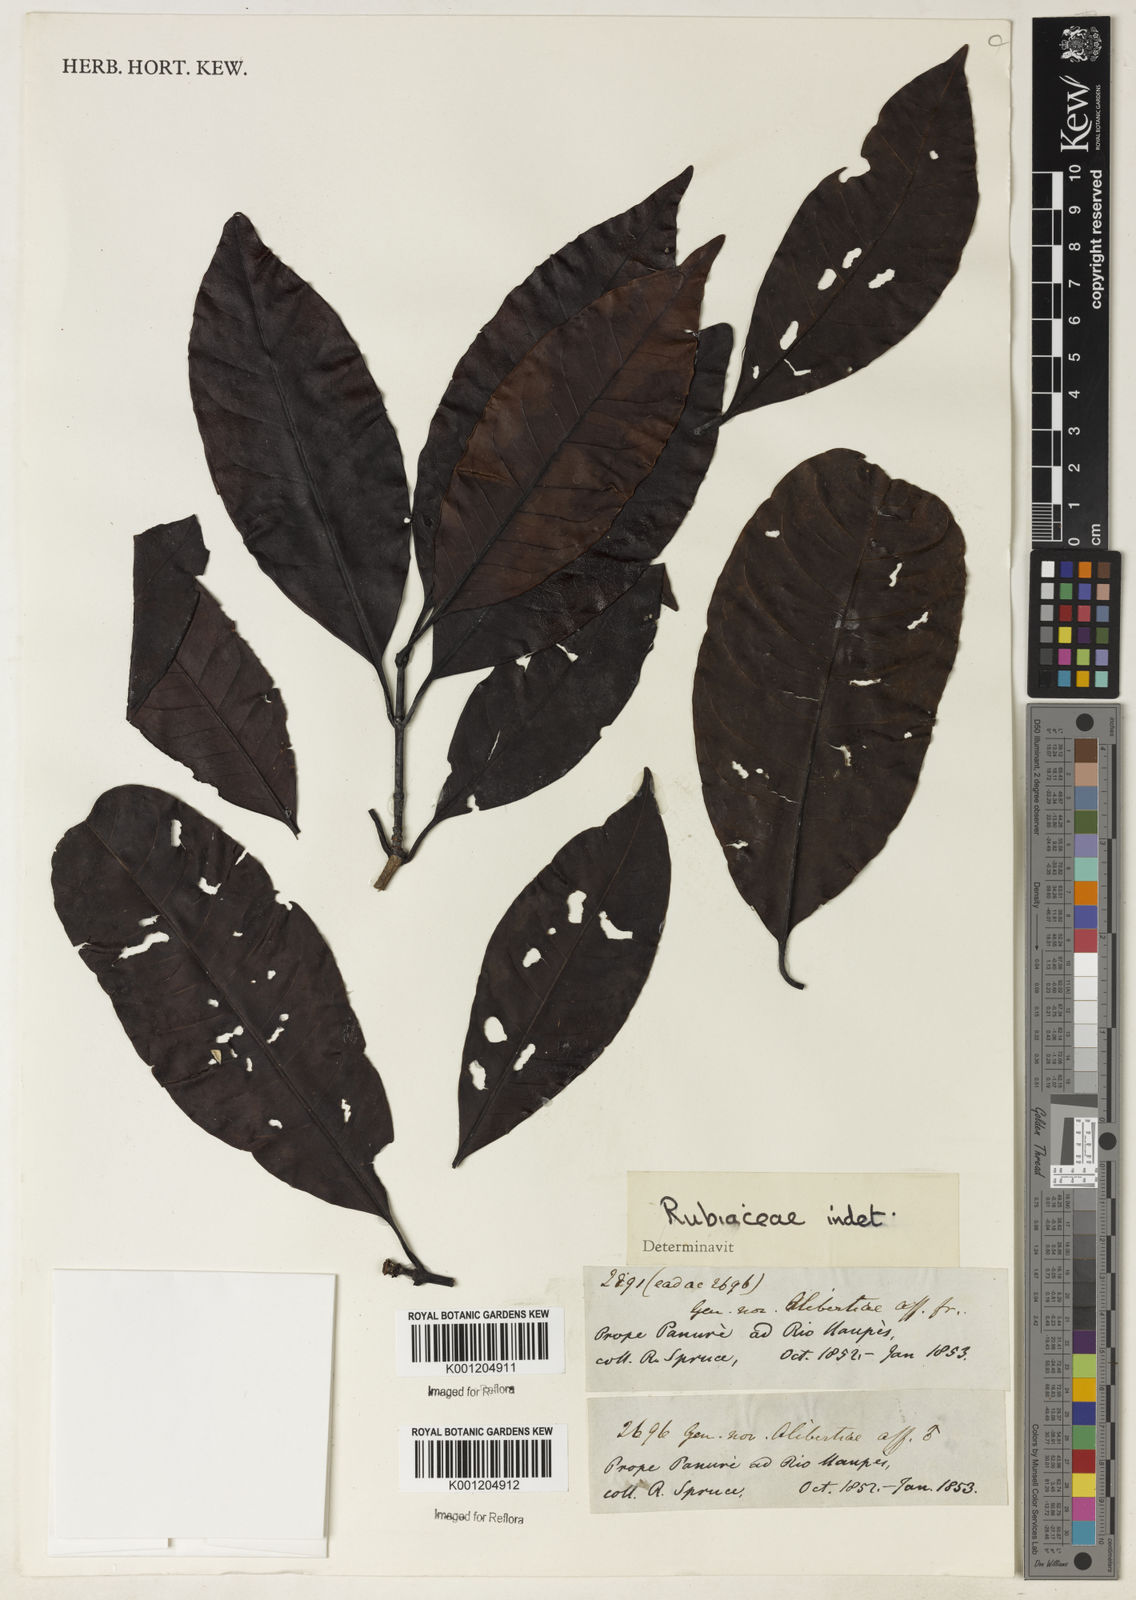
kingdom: Plantae
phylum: Tracheophyta
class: Magnoliopsida
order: Gentianales
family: Rubiaceae
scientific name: Rubiaceae
